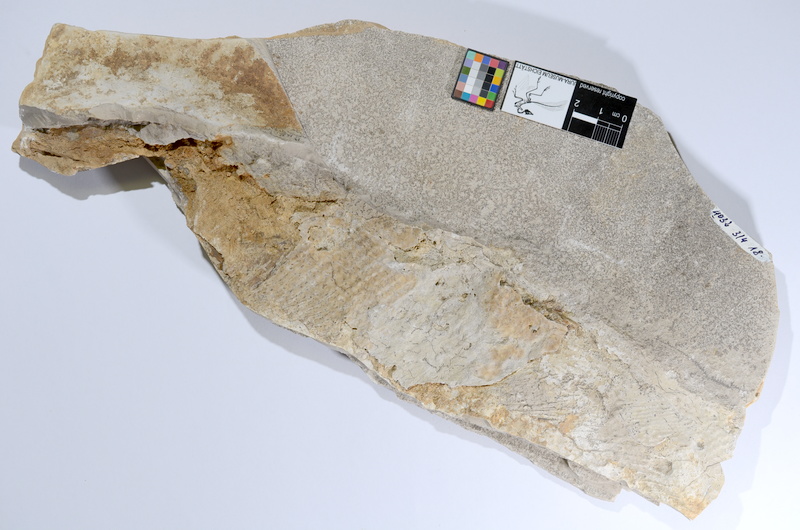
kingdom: Animalia
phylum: Chordata
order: Amiiformes
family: Caturidae
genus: Caturus
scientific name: Caturus
